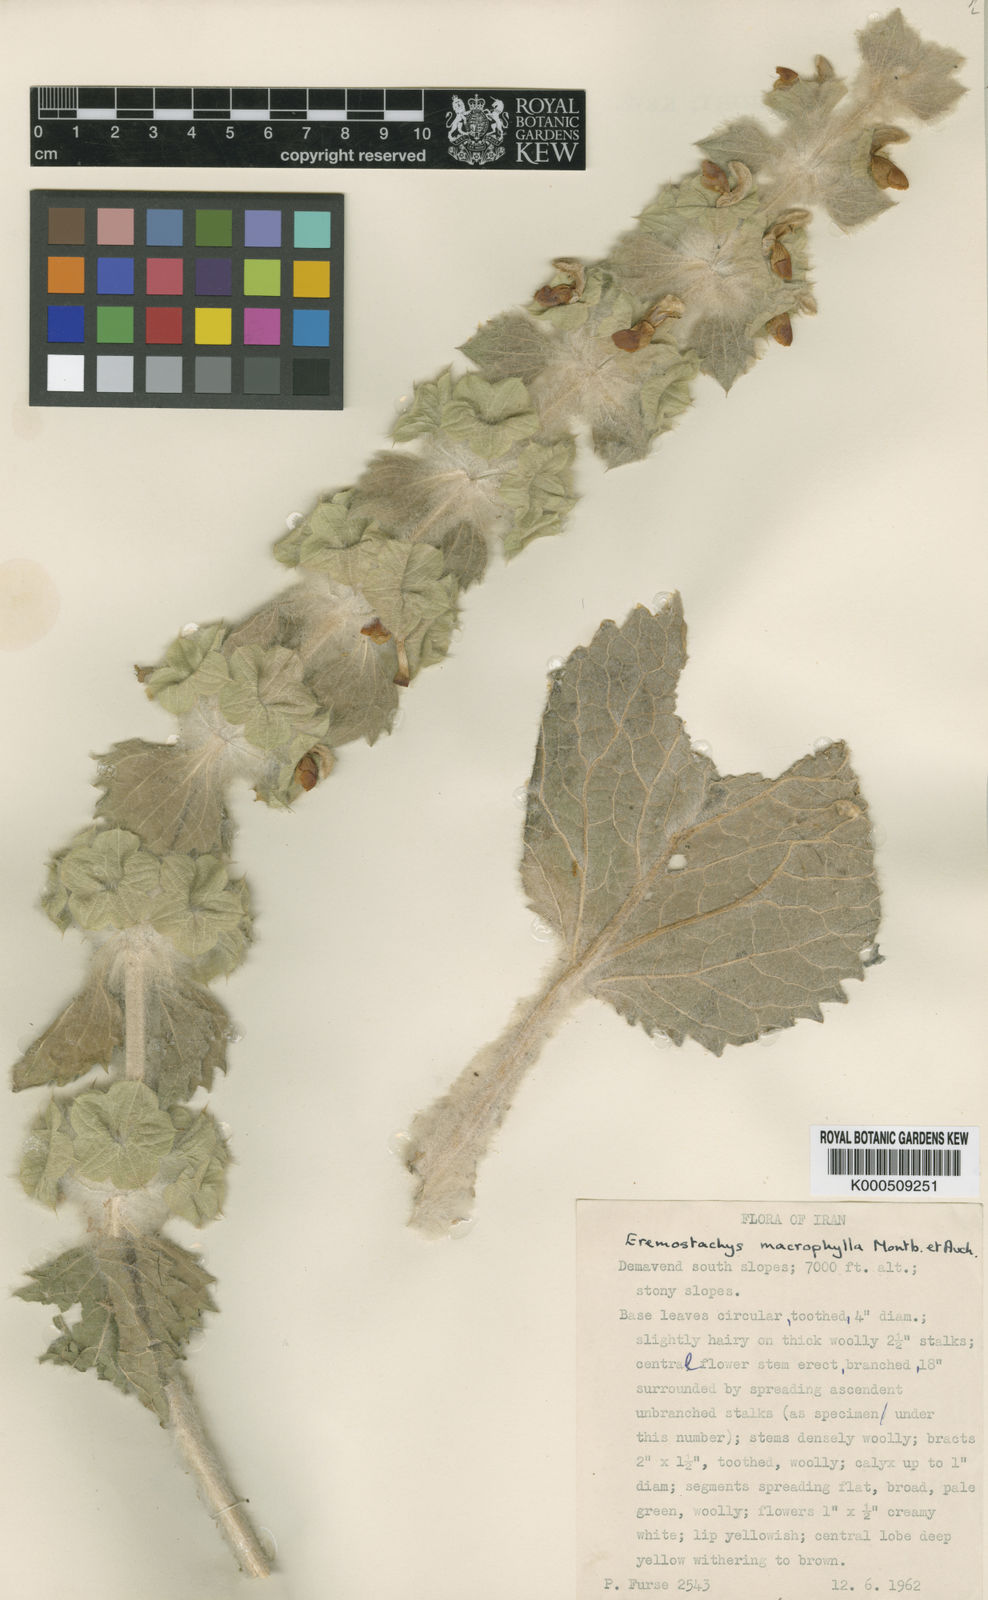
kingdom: Plantae
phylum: Tracheophyta
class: Magnoliopsida
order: Lamiales
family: Lamiaceae
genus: Phlomoides
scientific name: Phlomoides molucelloides
